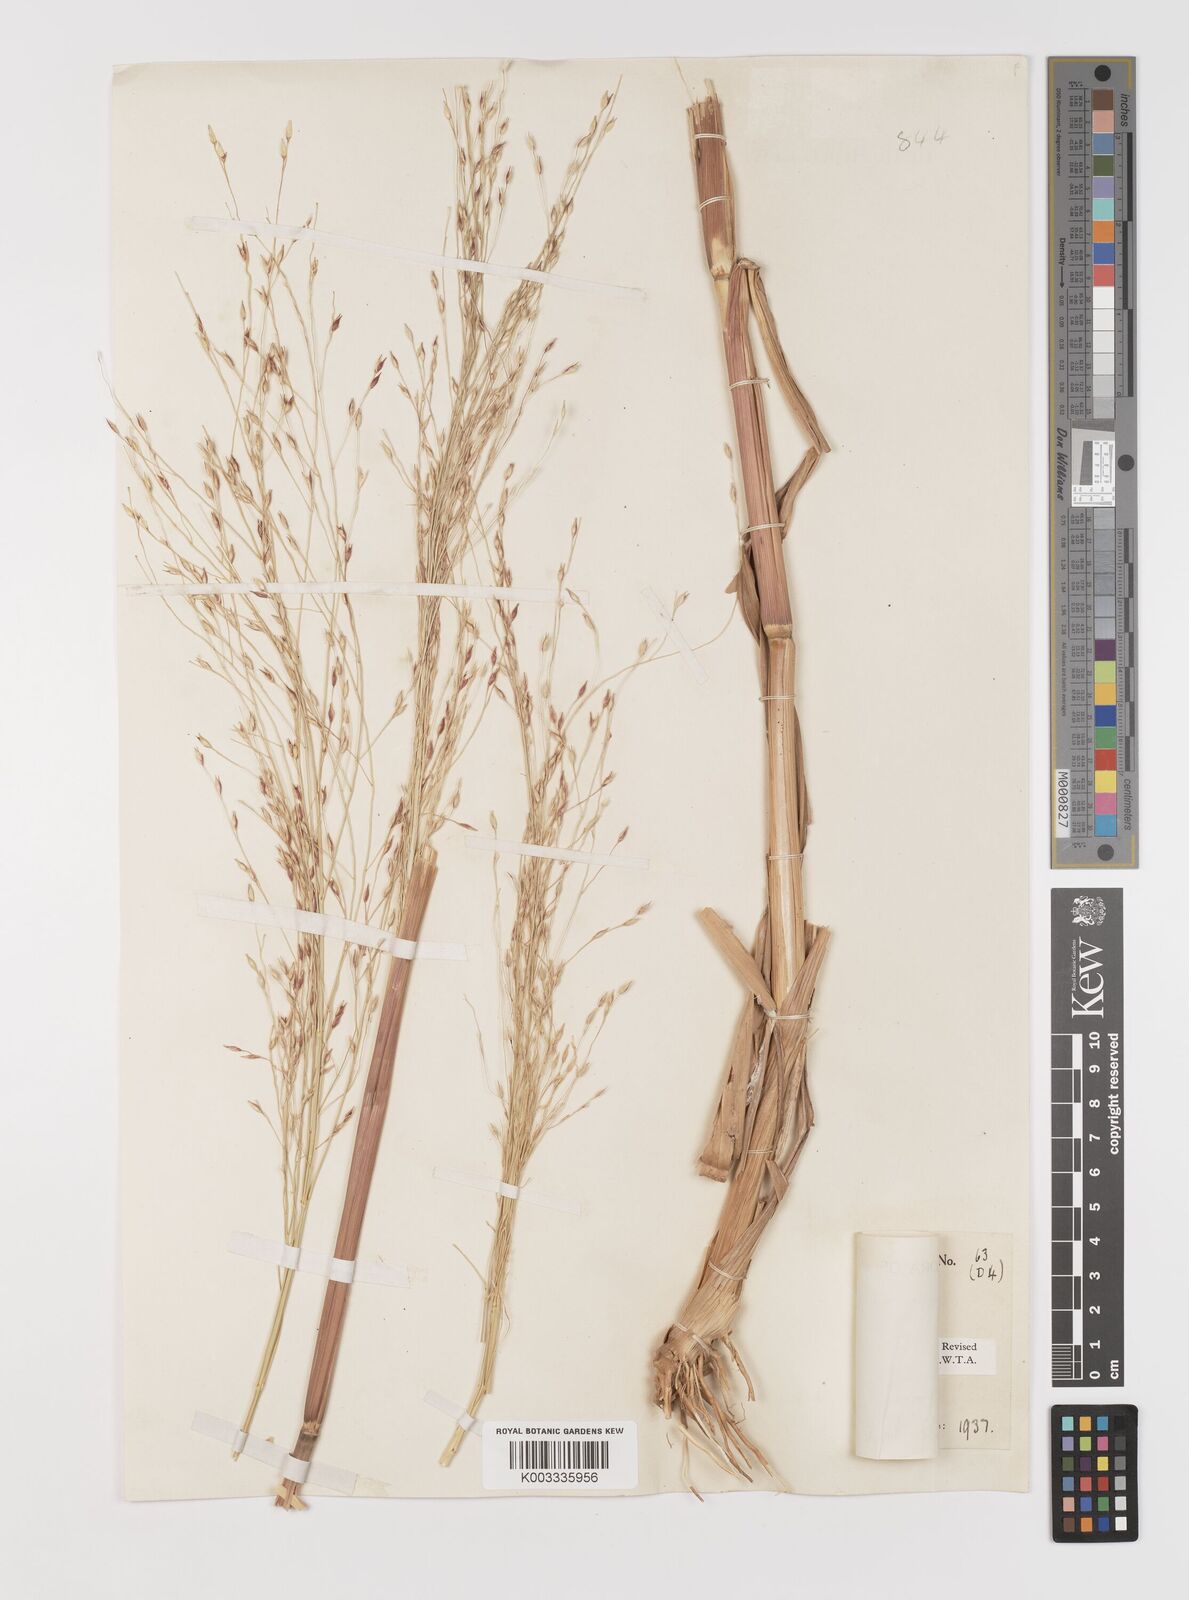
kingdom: Plantae
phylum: Tracheophyta
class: Liliopsida
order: Poales
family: Poaceae
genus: Panicum
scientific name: Panicum nigerense
